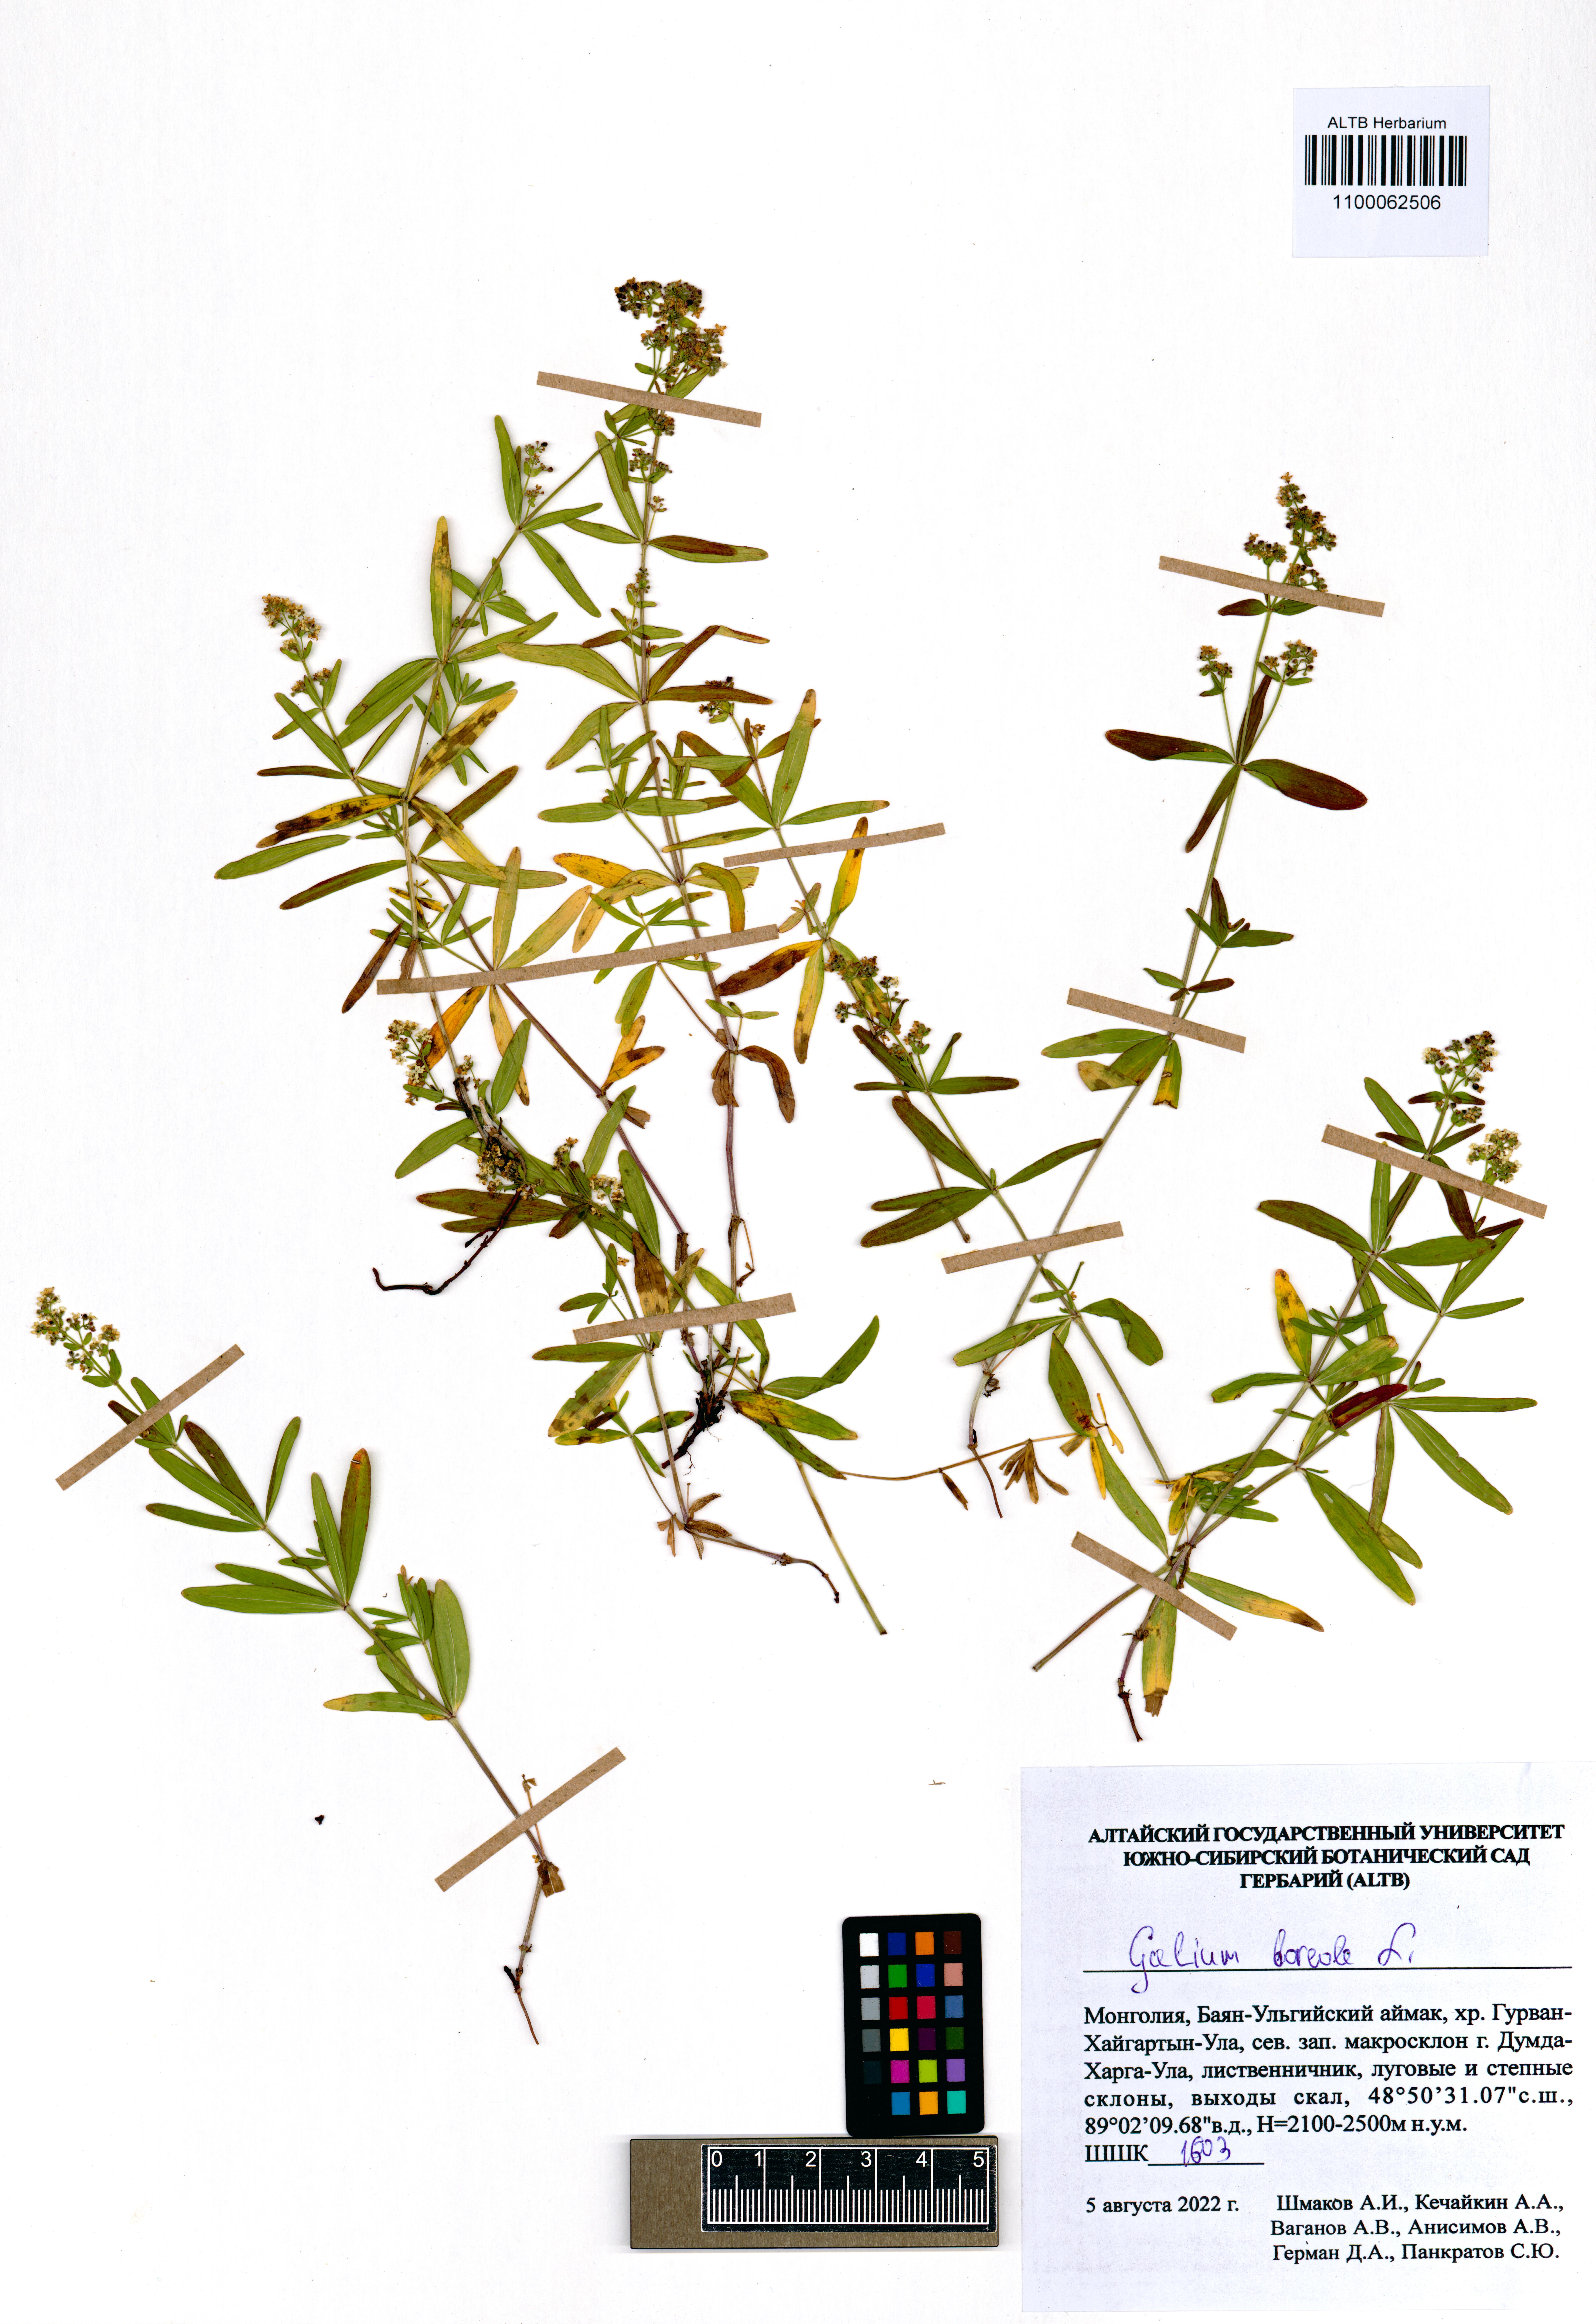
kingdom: Plantae
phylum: Tracheophyta
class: Magnoliopsida
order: Gentianales
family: Rubiaceae
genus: Galium
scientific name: Galium boreale
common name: Northern bedstraw
